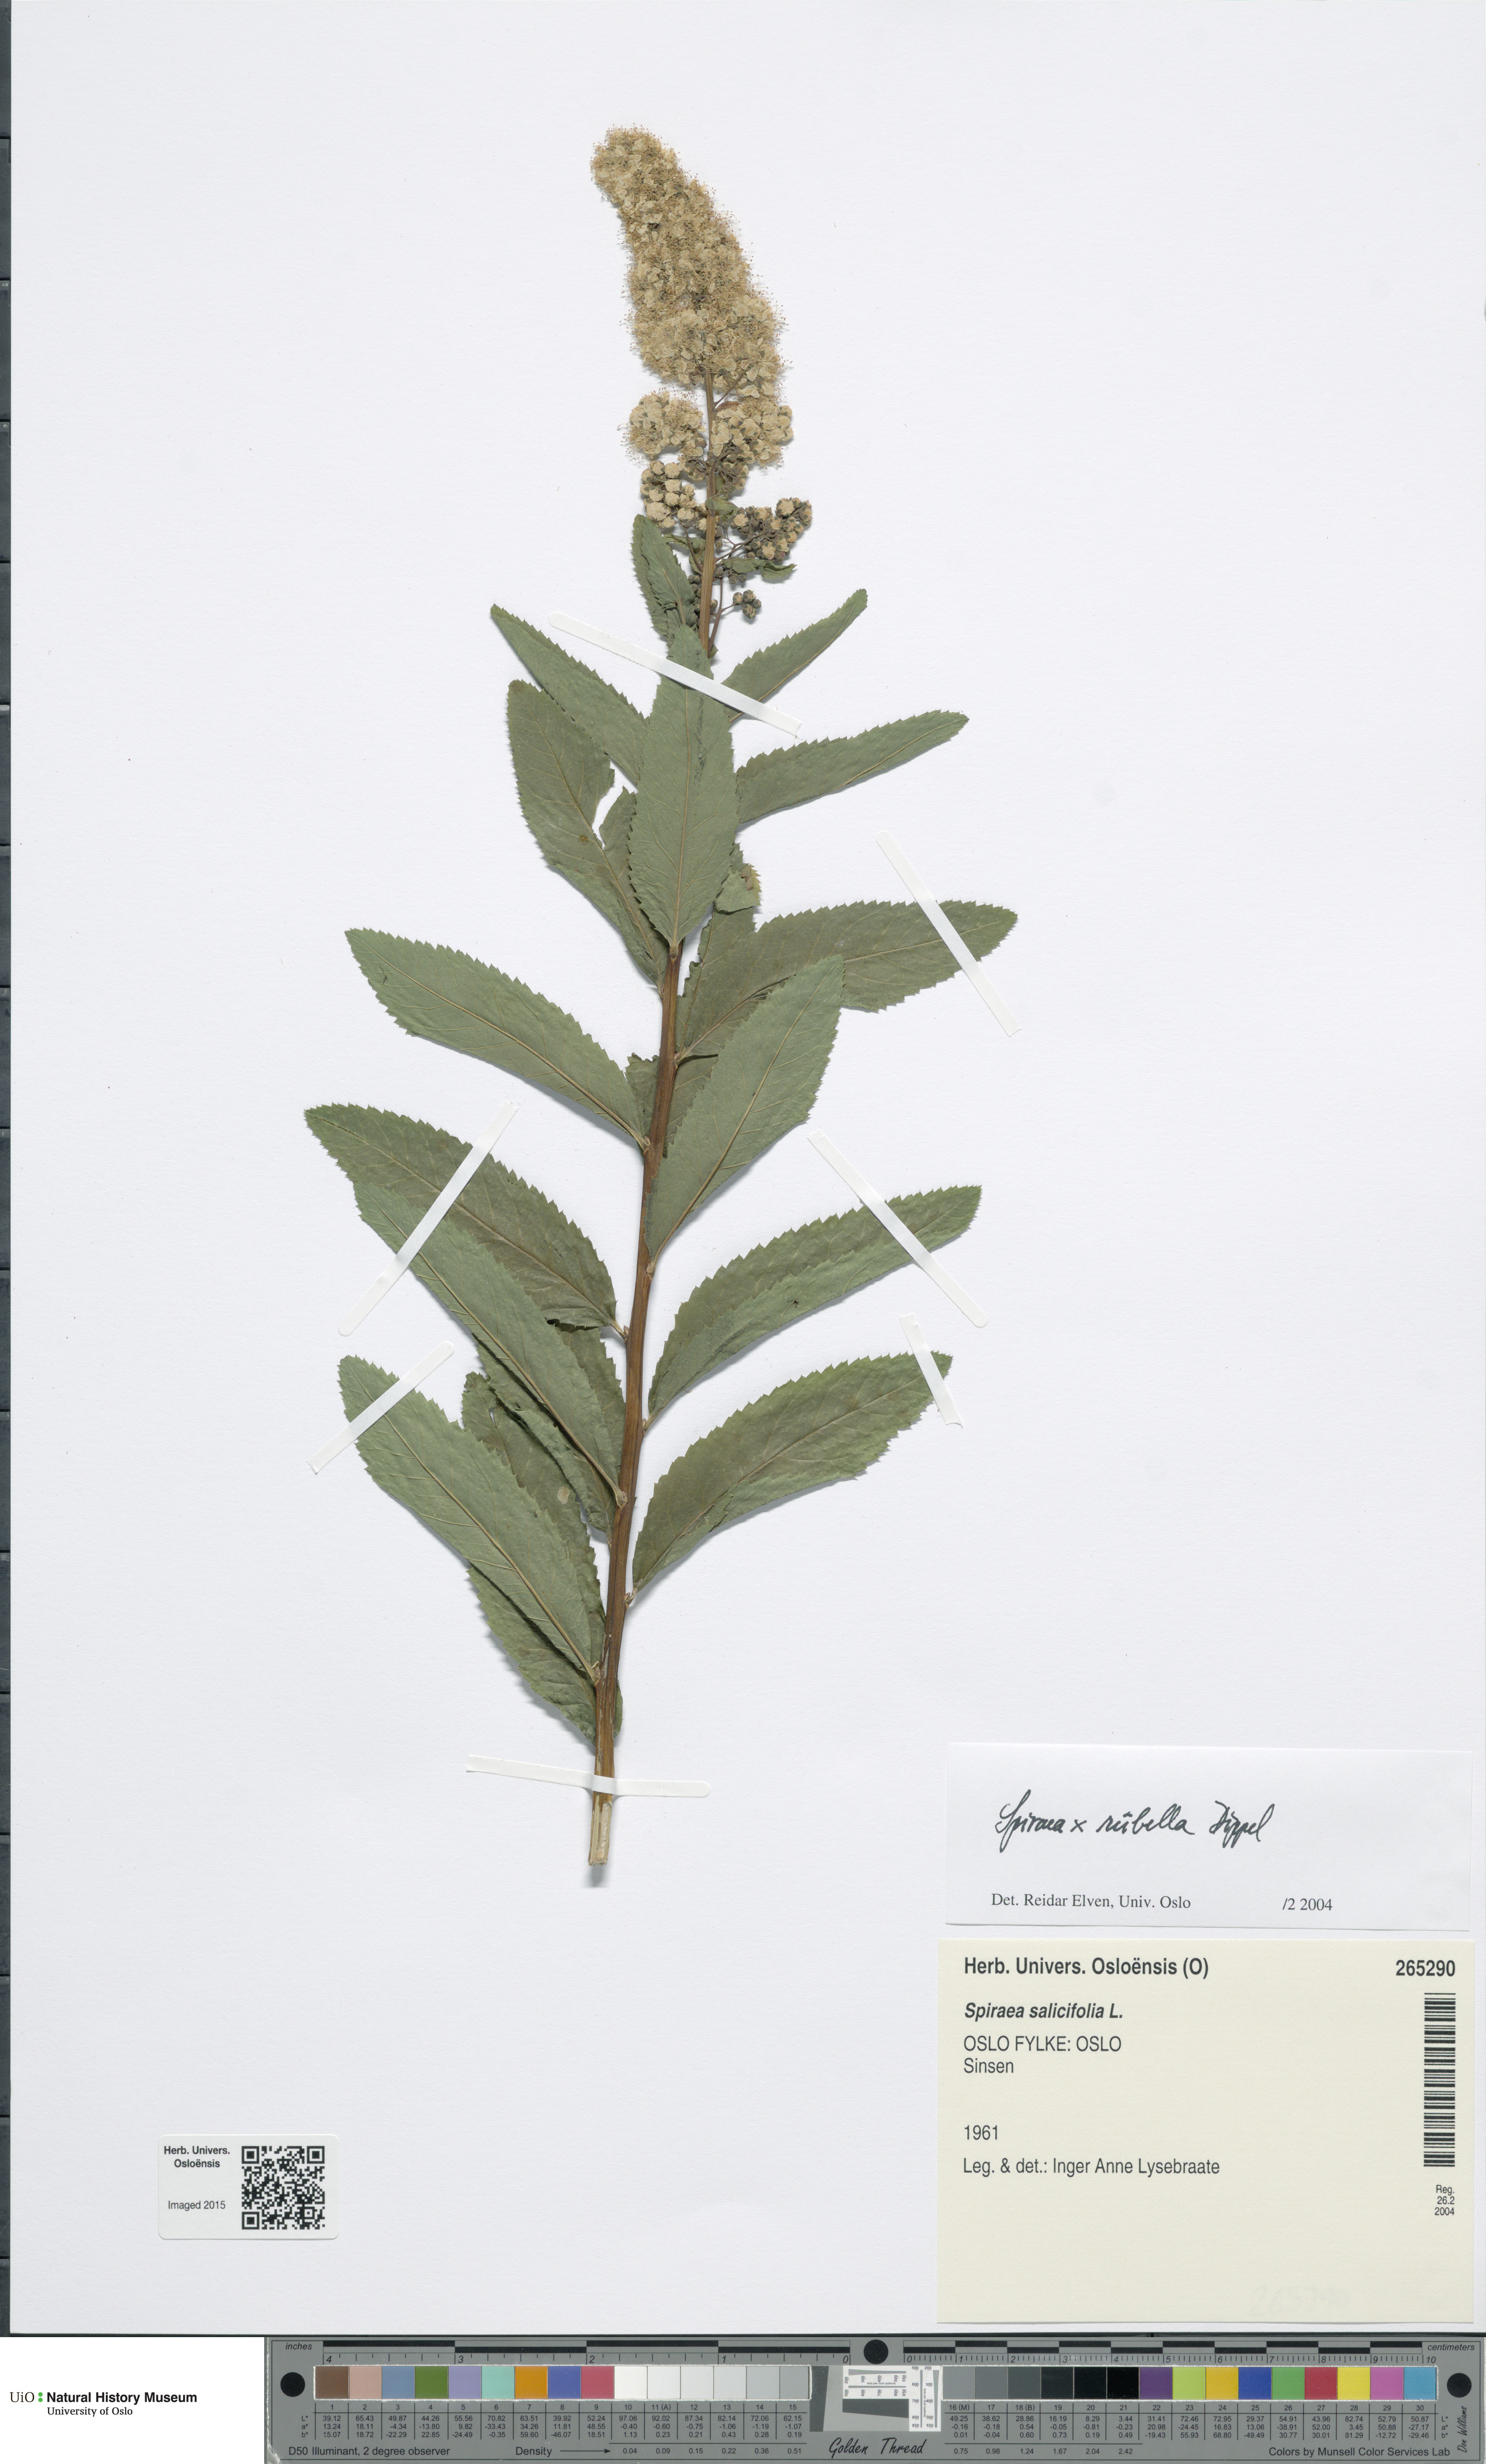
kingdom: Plantae
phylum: Tracheophyta
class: Magnoliopsida
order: Rosales
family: Rosaceae
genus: Spiraea
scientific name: Spiraea rosalba
